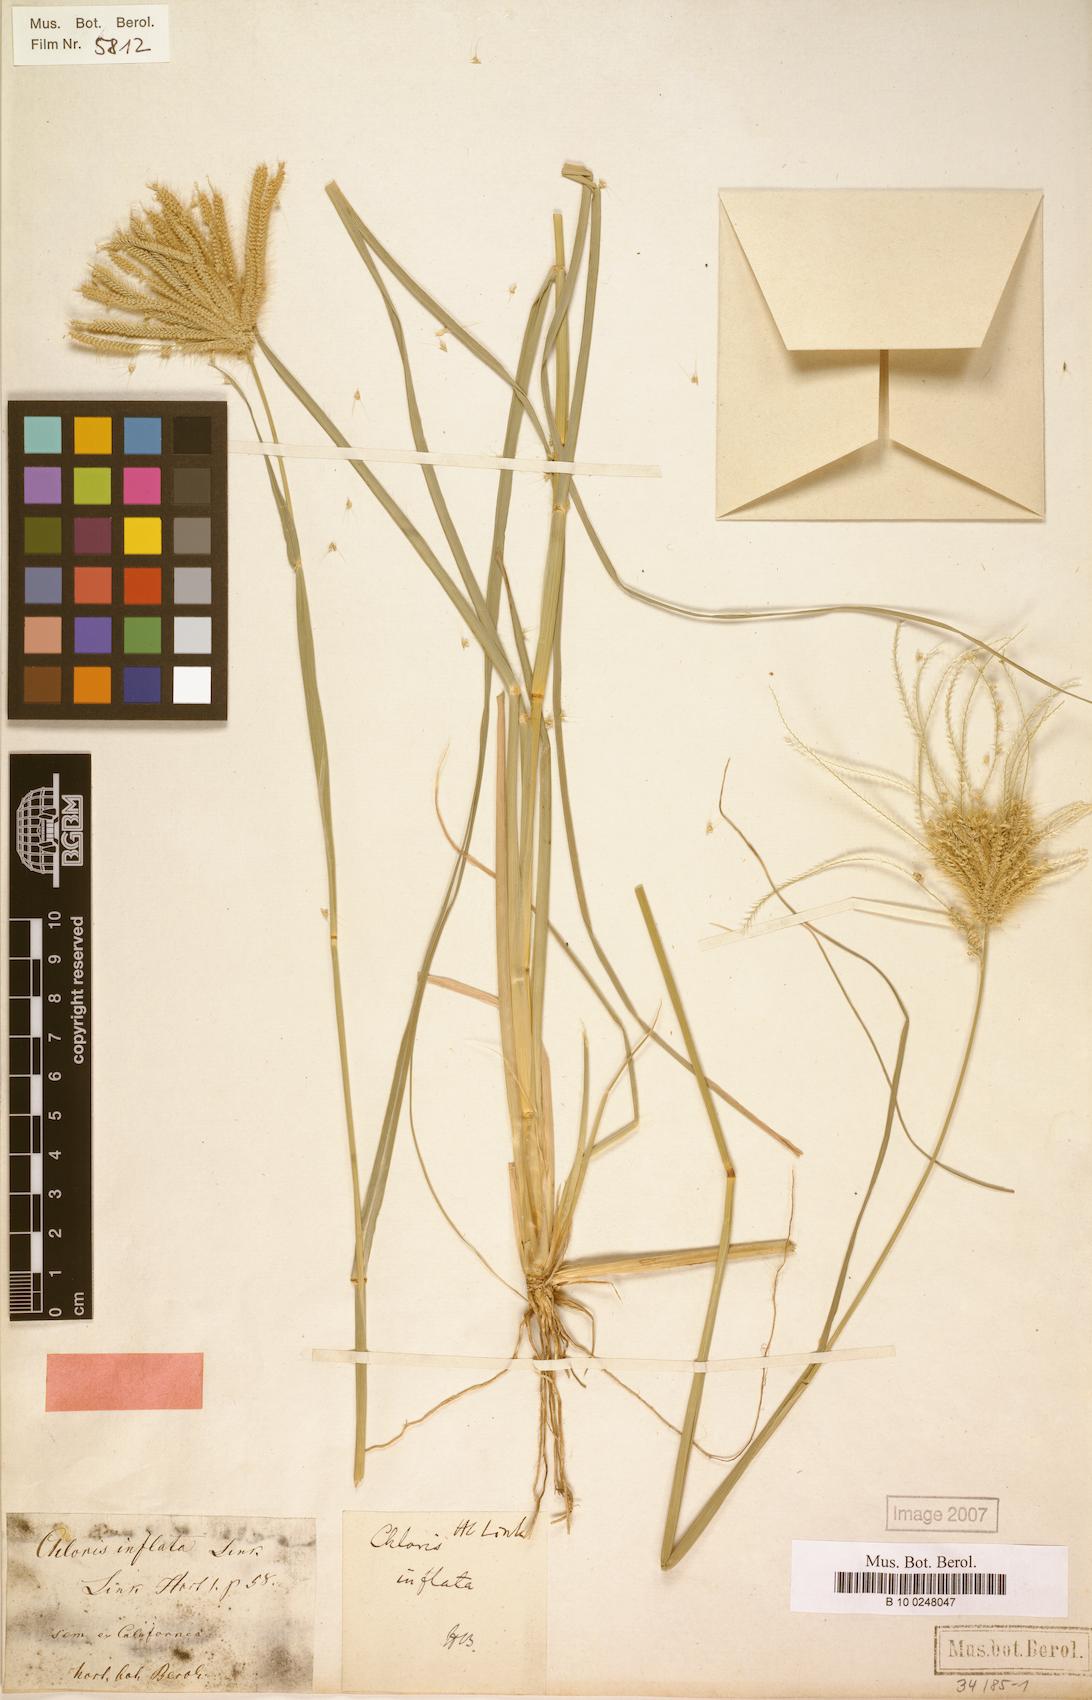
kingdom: Plantae
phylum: Tracheophyta
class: Liliopsida
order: Poales
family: Poaceae
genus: Chloris
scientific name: Chloris barbata
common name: Swollen fingergrass
